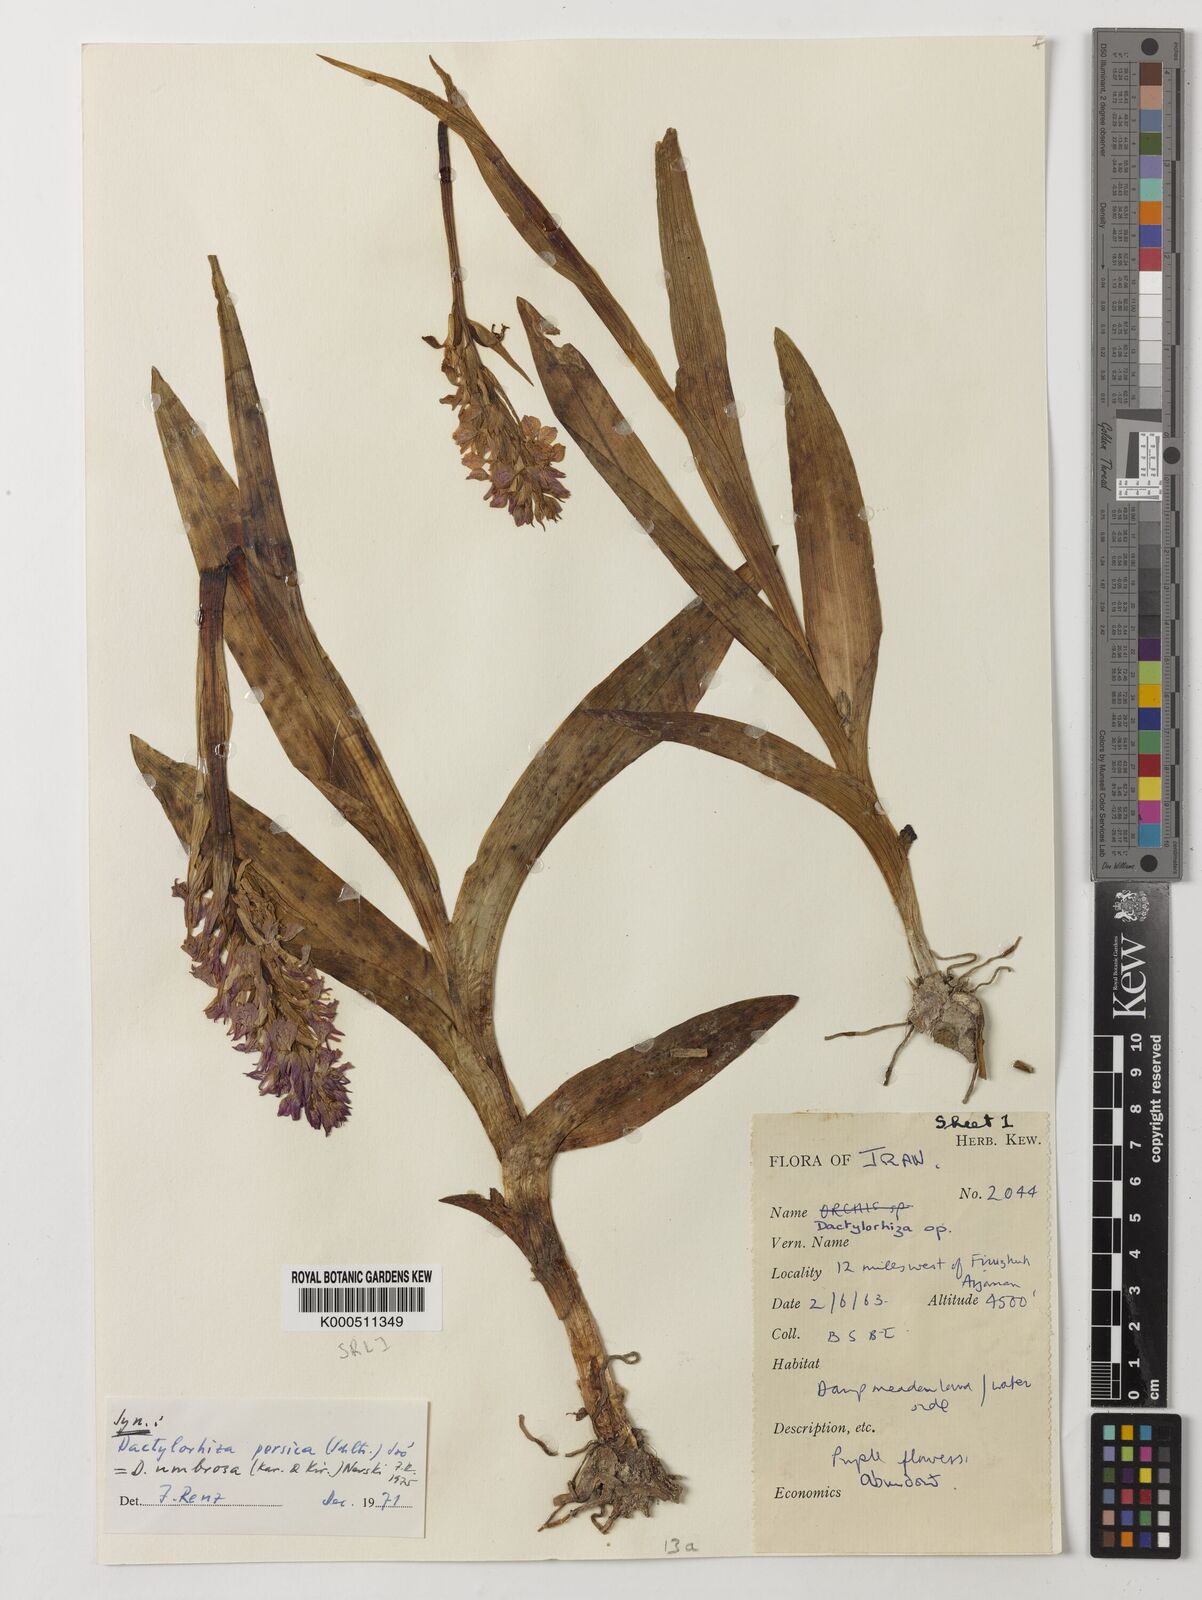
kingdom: Plantae
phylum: Tracheophyta
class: Liliopsida
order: Asparagales
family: Orchidaceae
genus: Dactylorhiza
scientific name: Dactylorhiza
